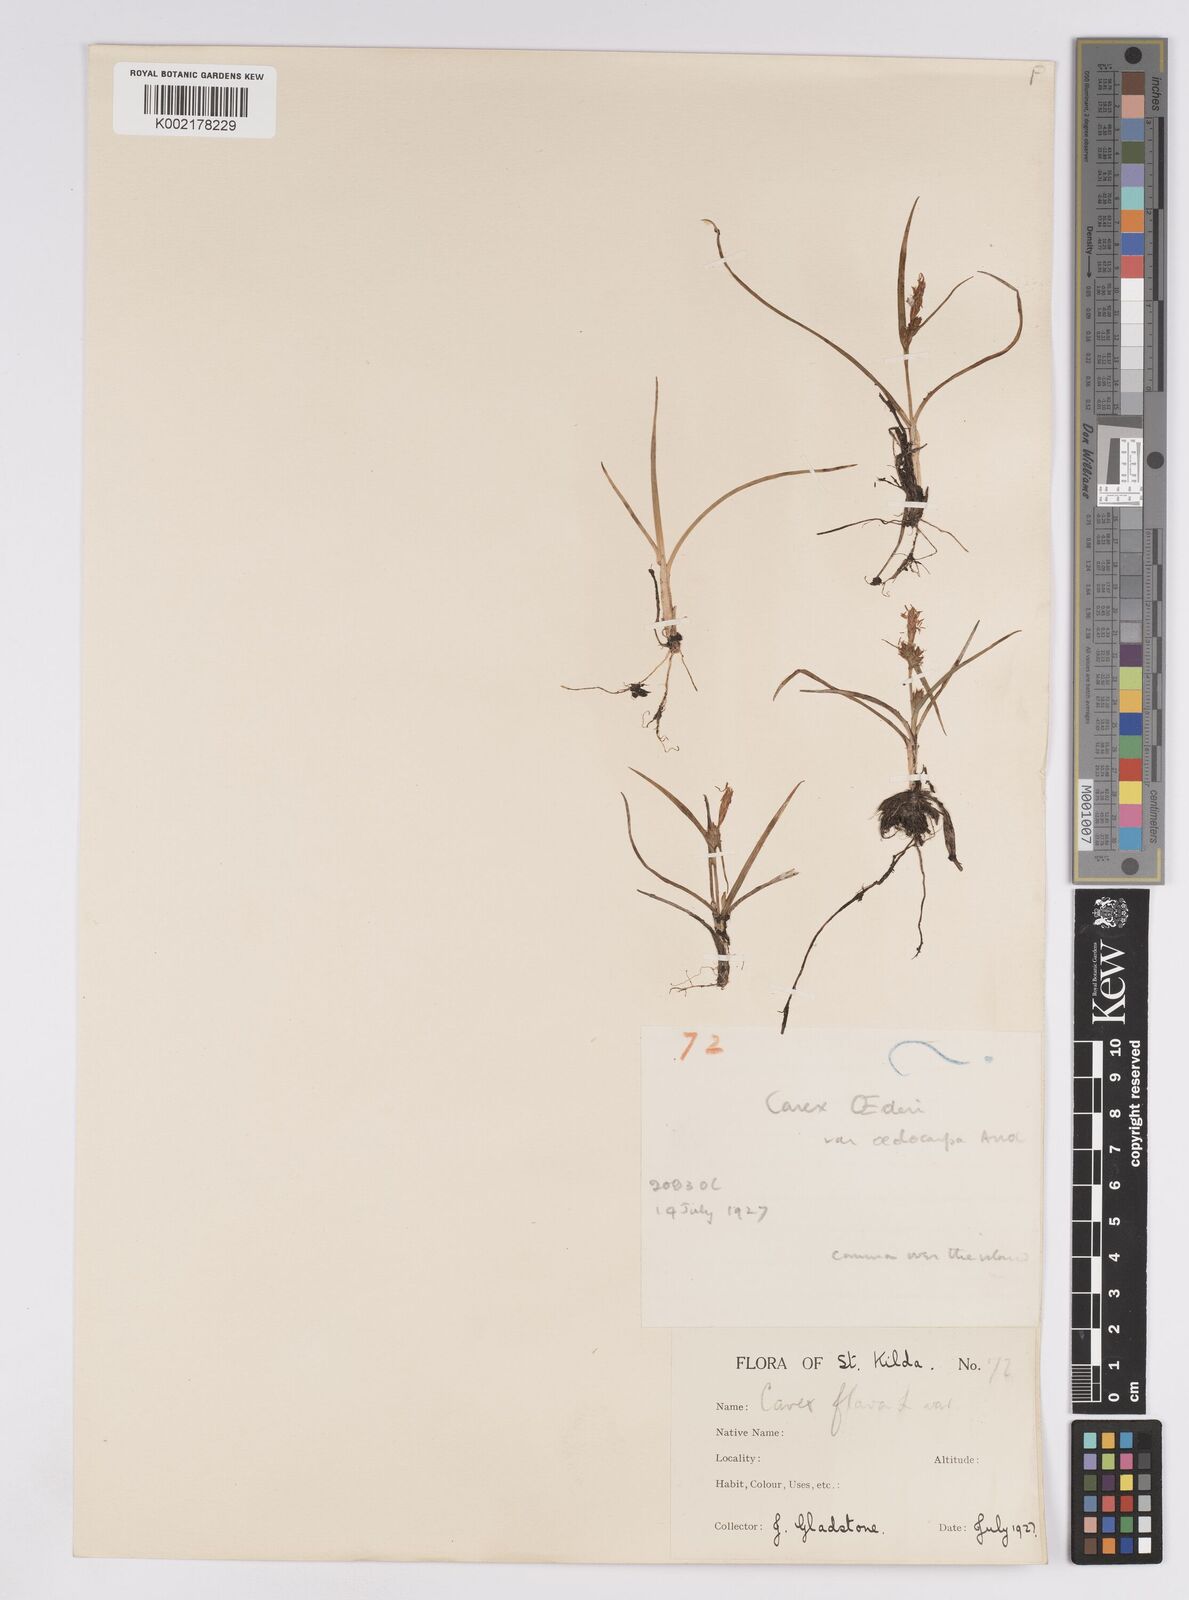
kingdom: Plantae
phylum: Tracheophyta
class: Liliopsida
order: Poales
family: Cyperaceae
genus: Carex
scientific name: Carex demissa
